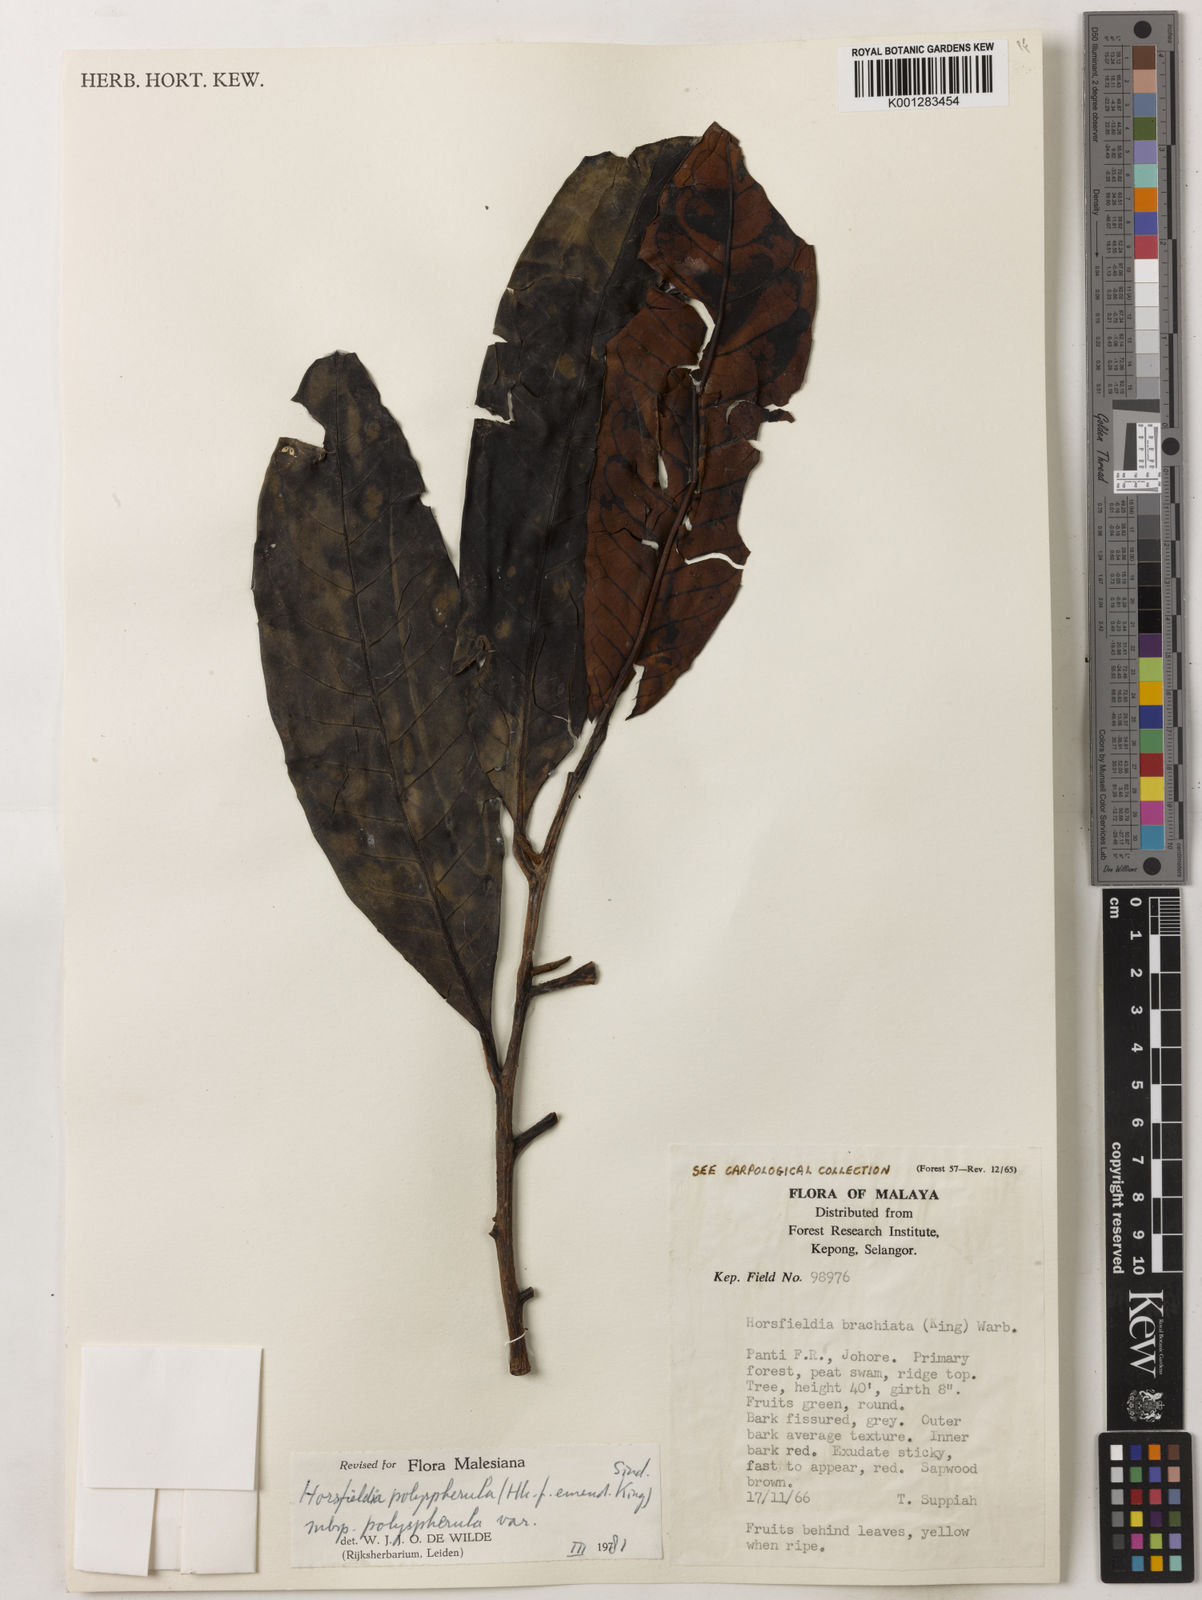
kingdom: Plantae
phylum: Tracheophyta
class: Magnoliopsida
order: Magnoliales
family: Myristicaceae
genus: Horsfieldia
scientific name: Horsfieldia polyspherula
